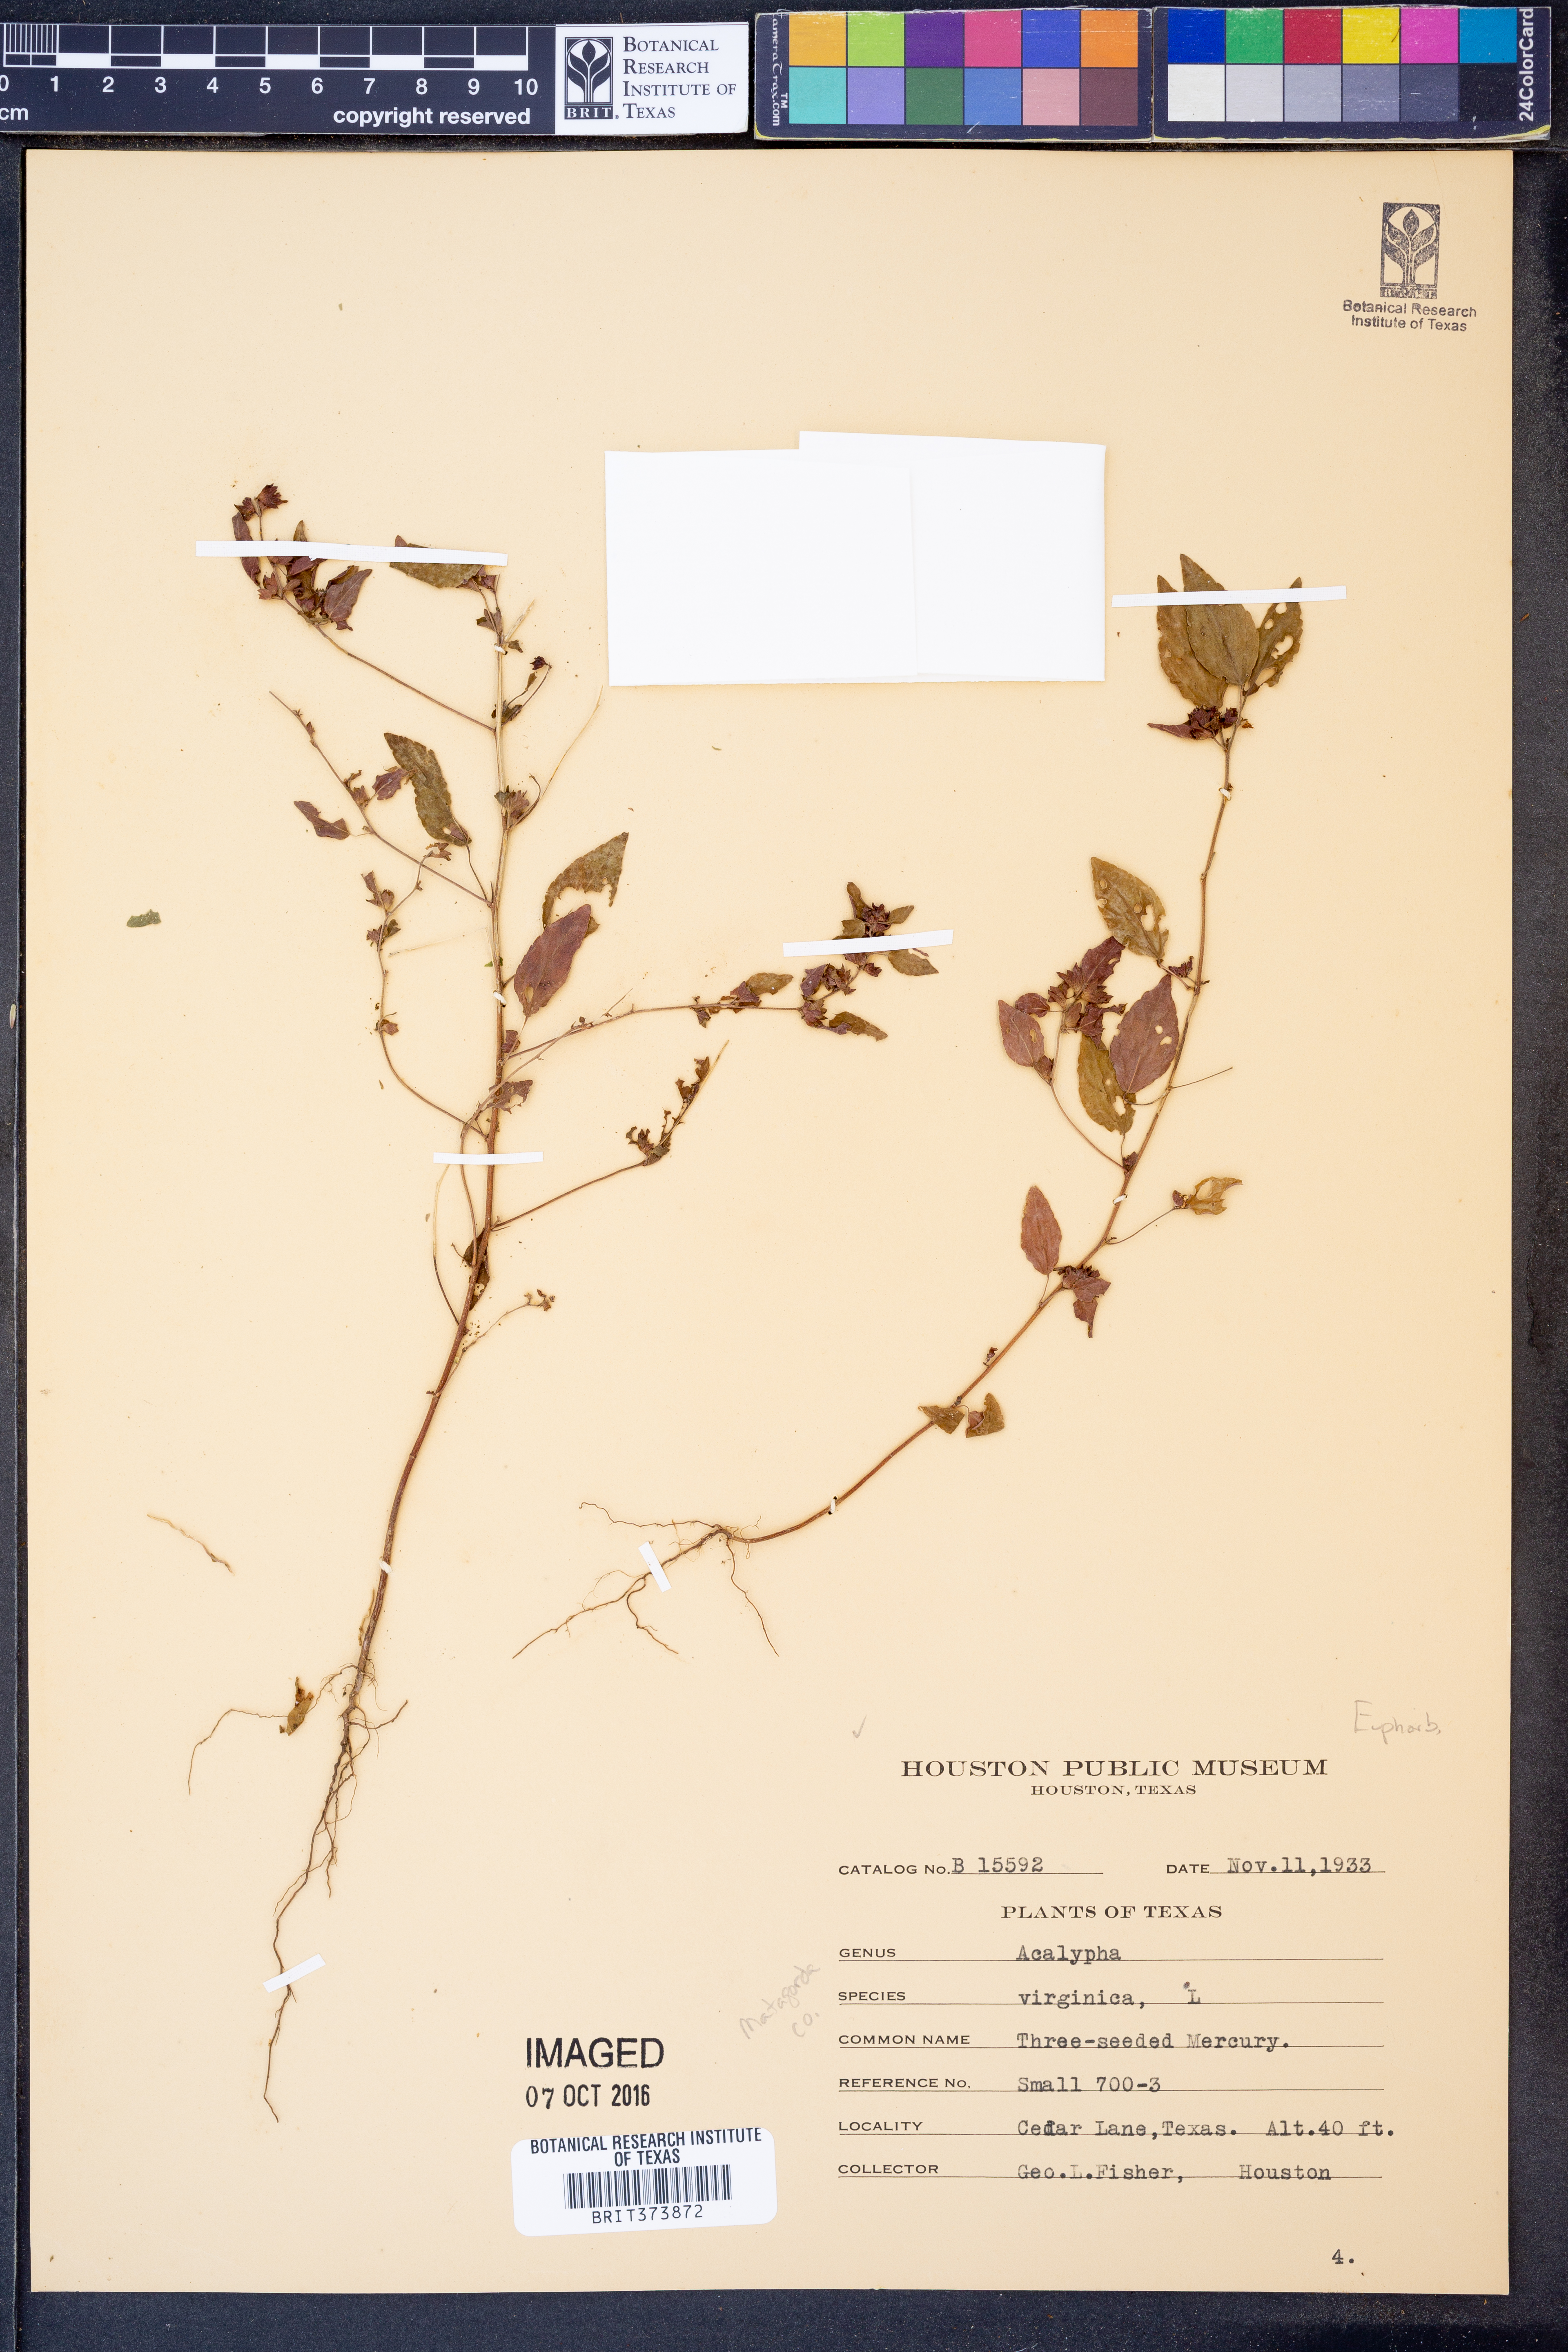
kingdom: Plantae
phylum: Tracheophyta
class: Magnoliopsida
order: Malpighiales
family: Euphorbiaceae
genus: Acalypha
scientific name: Acalypha virginica
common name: Virginia copperleaf
